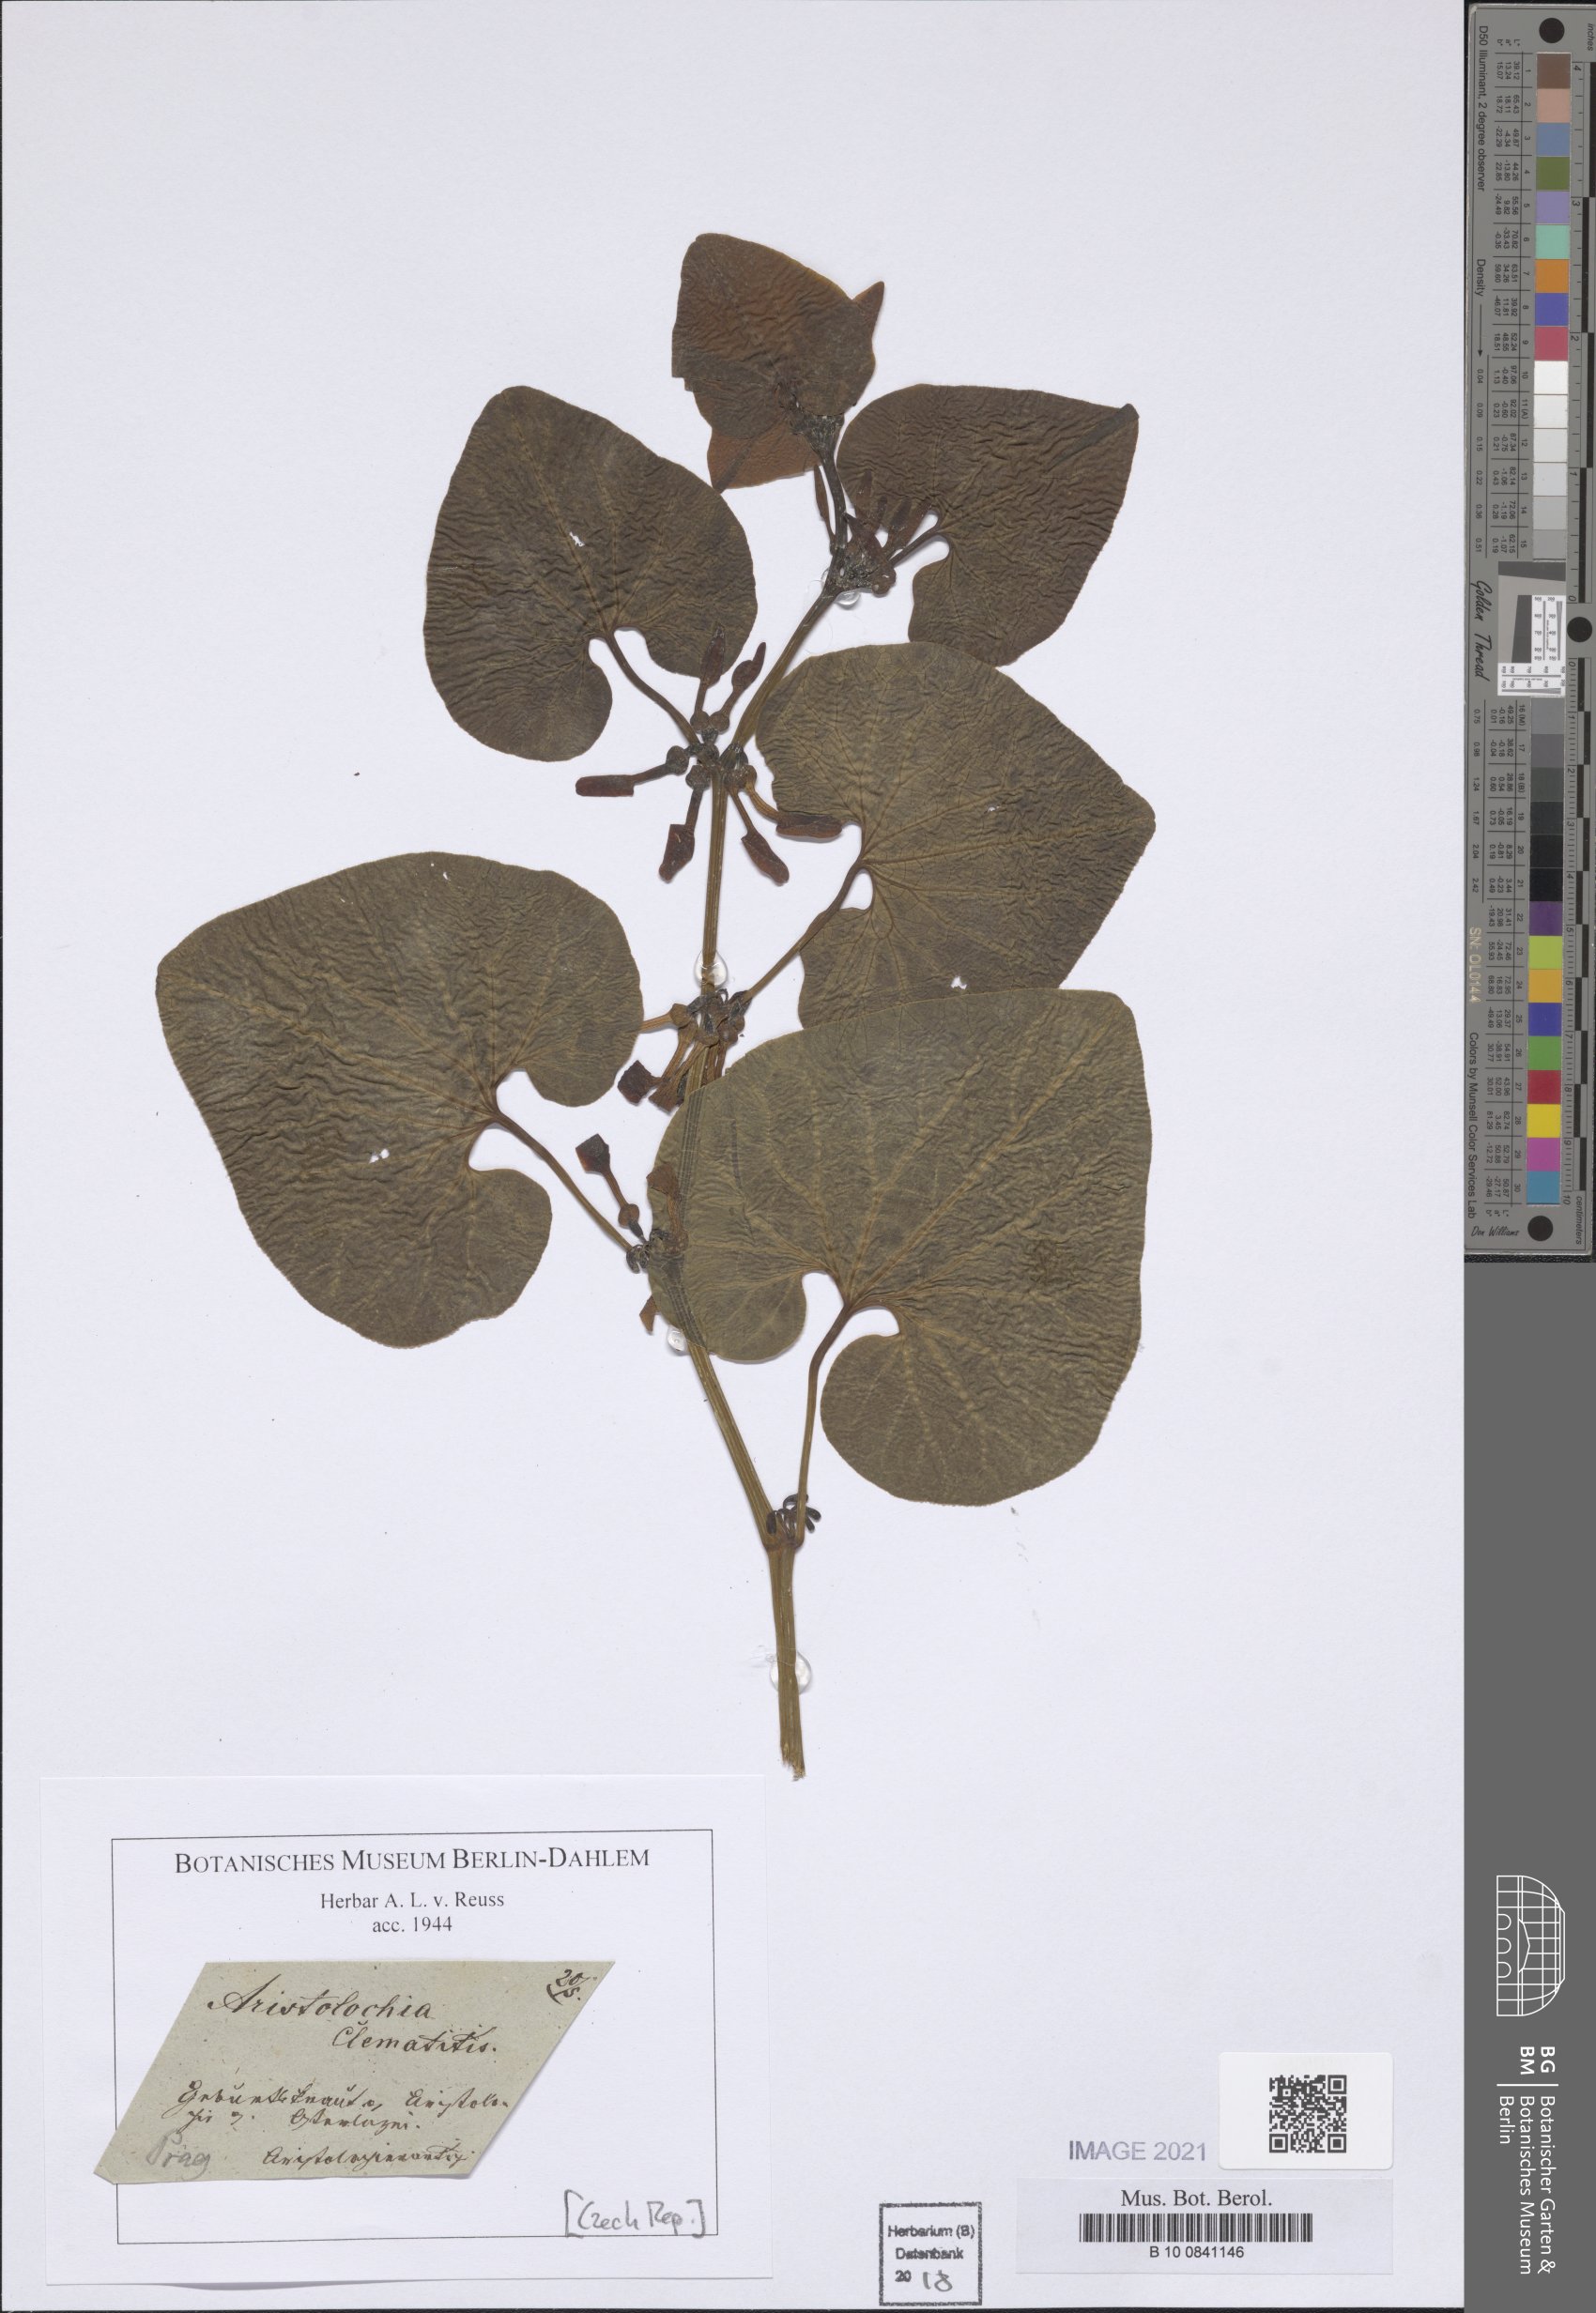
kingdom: Plantae
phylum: Tracheophyta
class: Magnoliopsida
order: Piperales
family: Aristolochiaceae
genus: Aristolochia
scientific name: Aristolochia clematitis
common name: Birthwort
